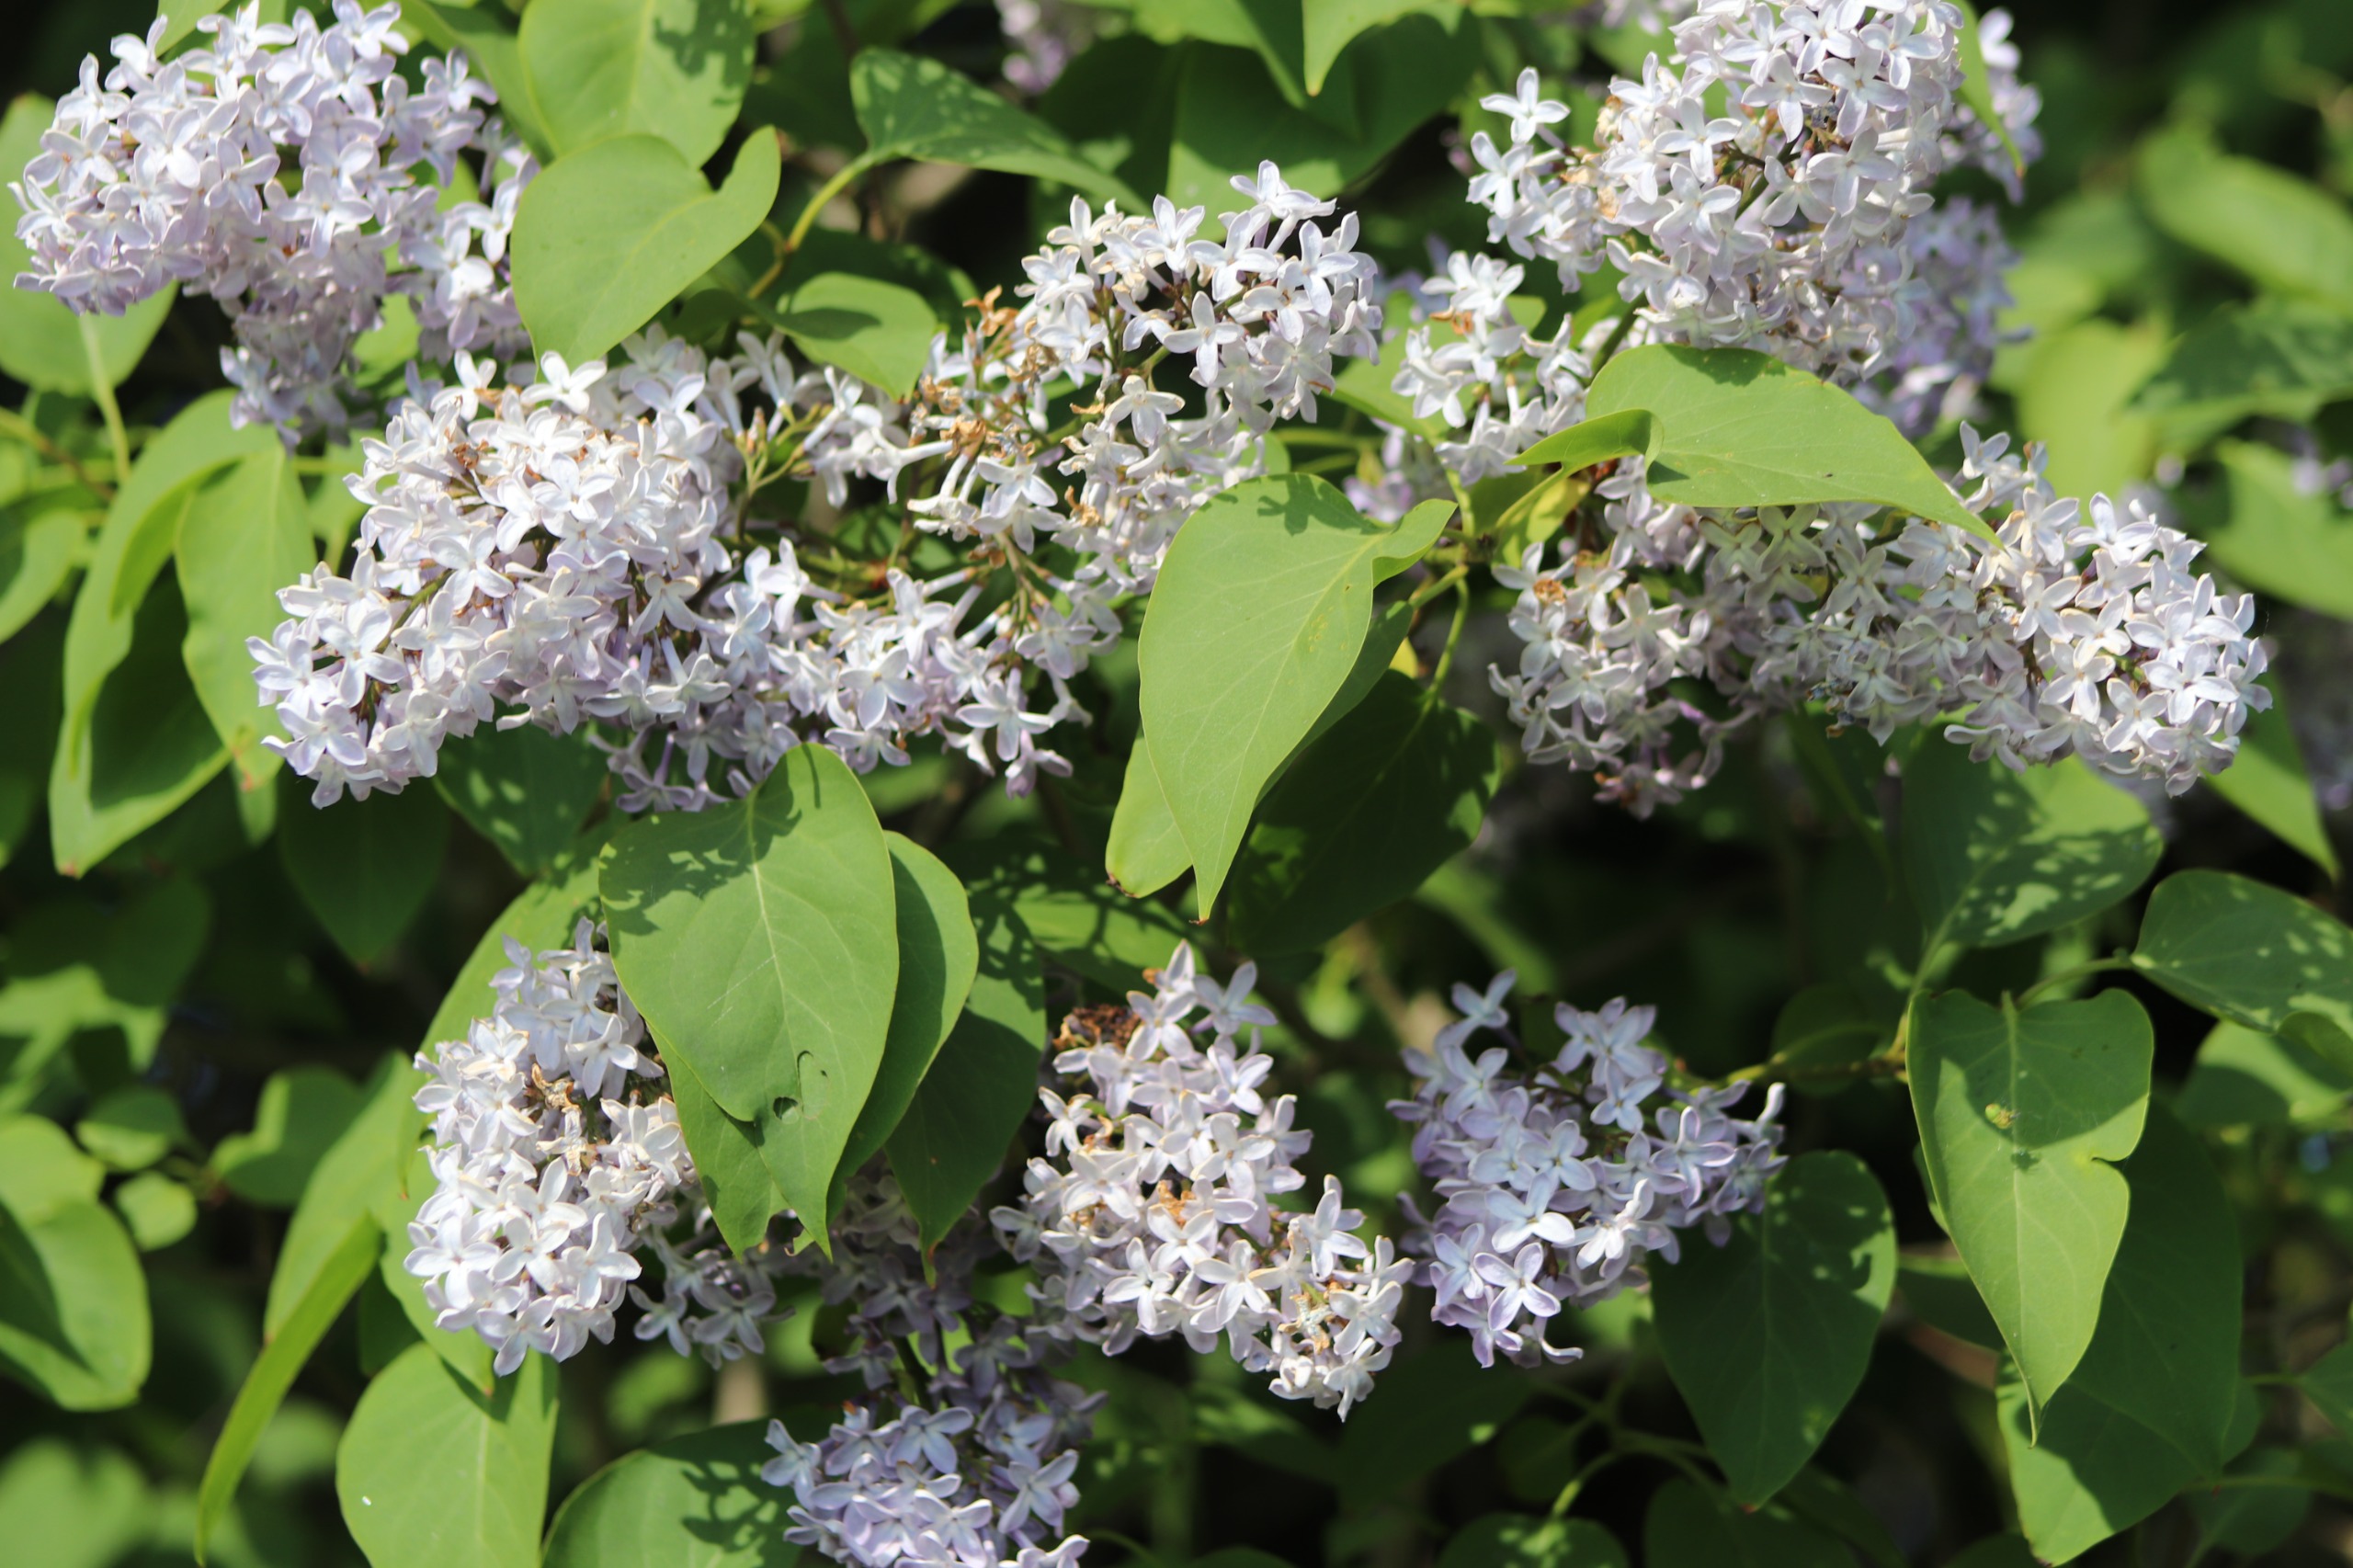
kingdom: Plantae
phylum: Tracheophyta
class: Magnoliopsida
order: Lamiales
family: Oleaceae
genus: Syringa
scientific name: Syringa vulgaris
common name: Syren
